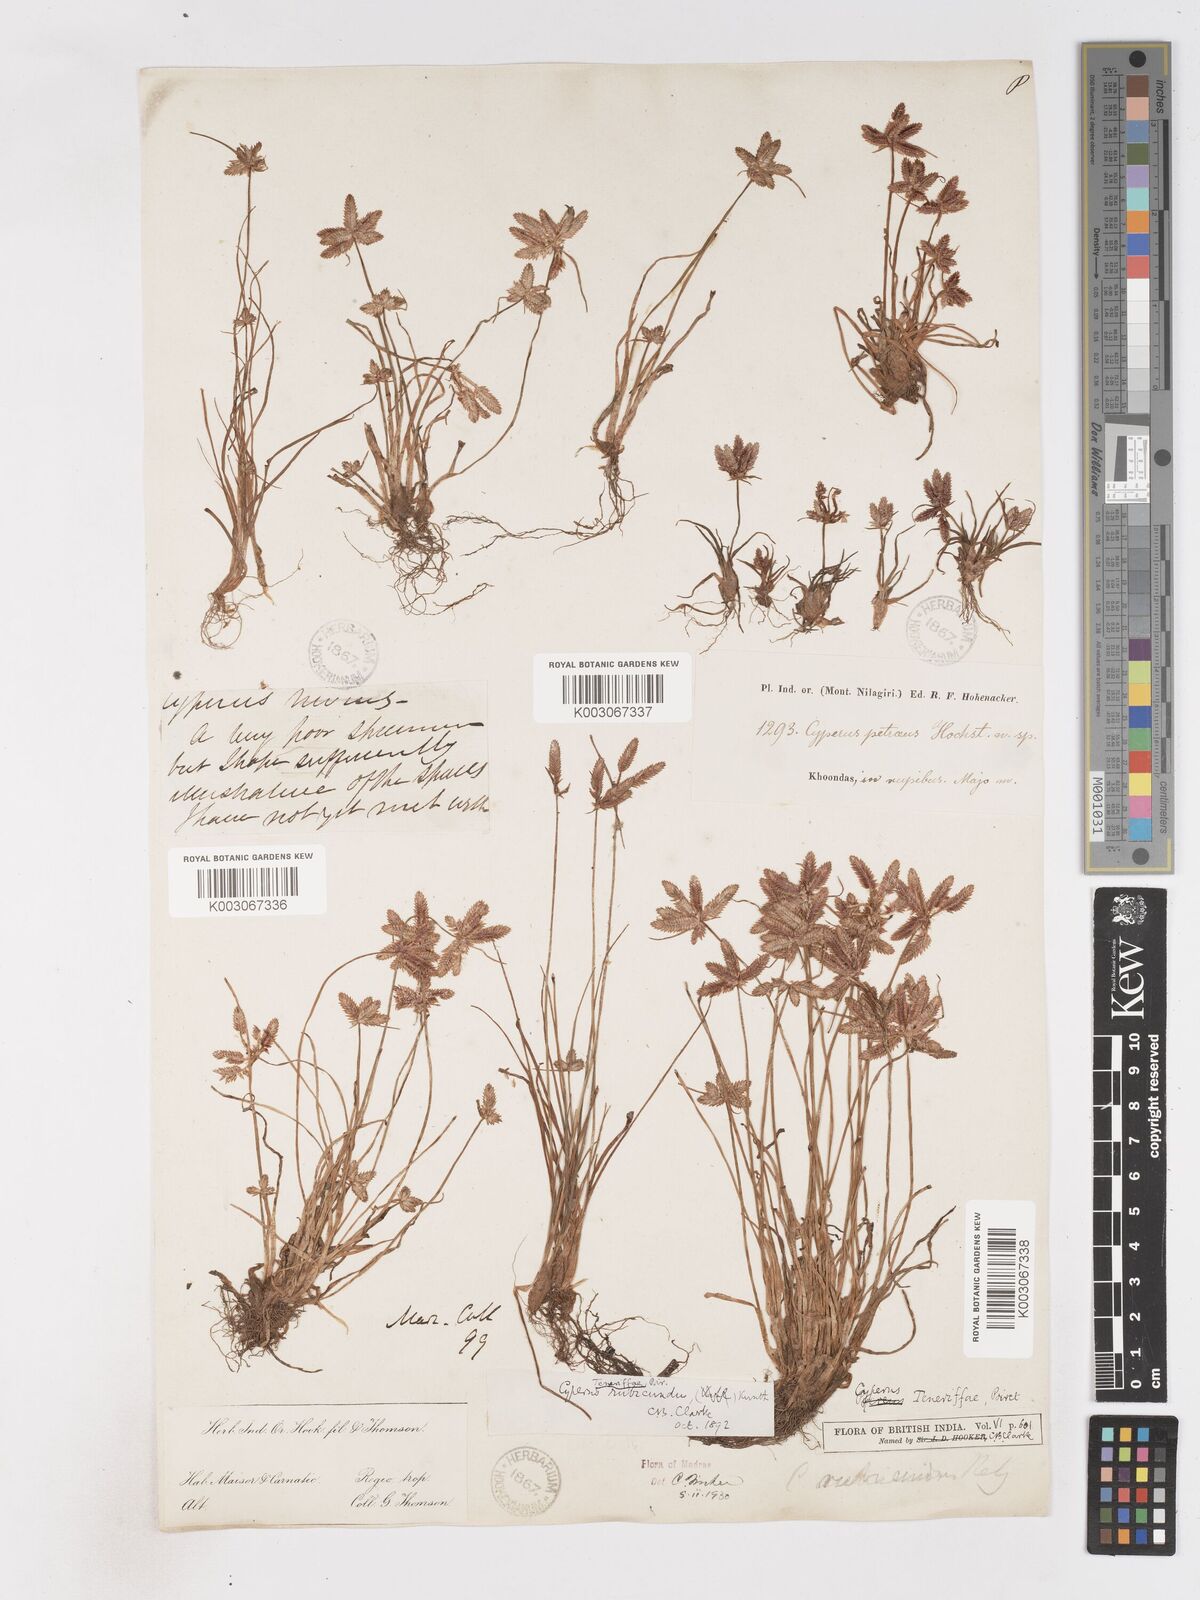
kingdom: Plantae
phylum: Tracheophyta
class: Liliopsida
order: Poales
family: Cyperaceae
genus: Cyperus
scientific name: Cyperus rubicundus
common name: Coco-grass
